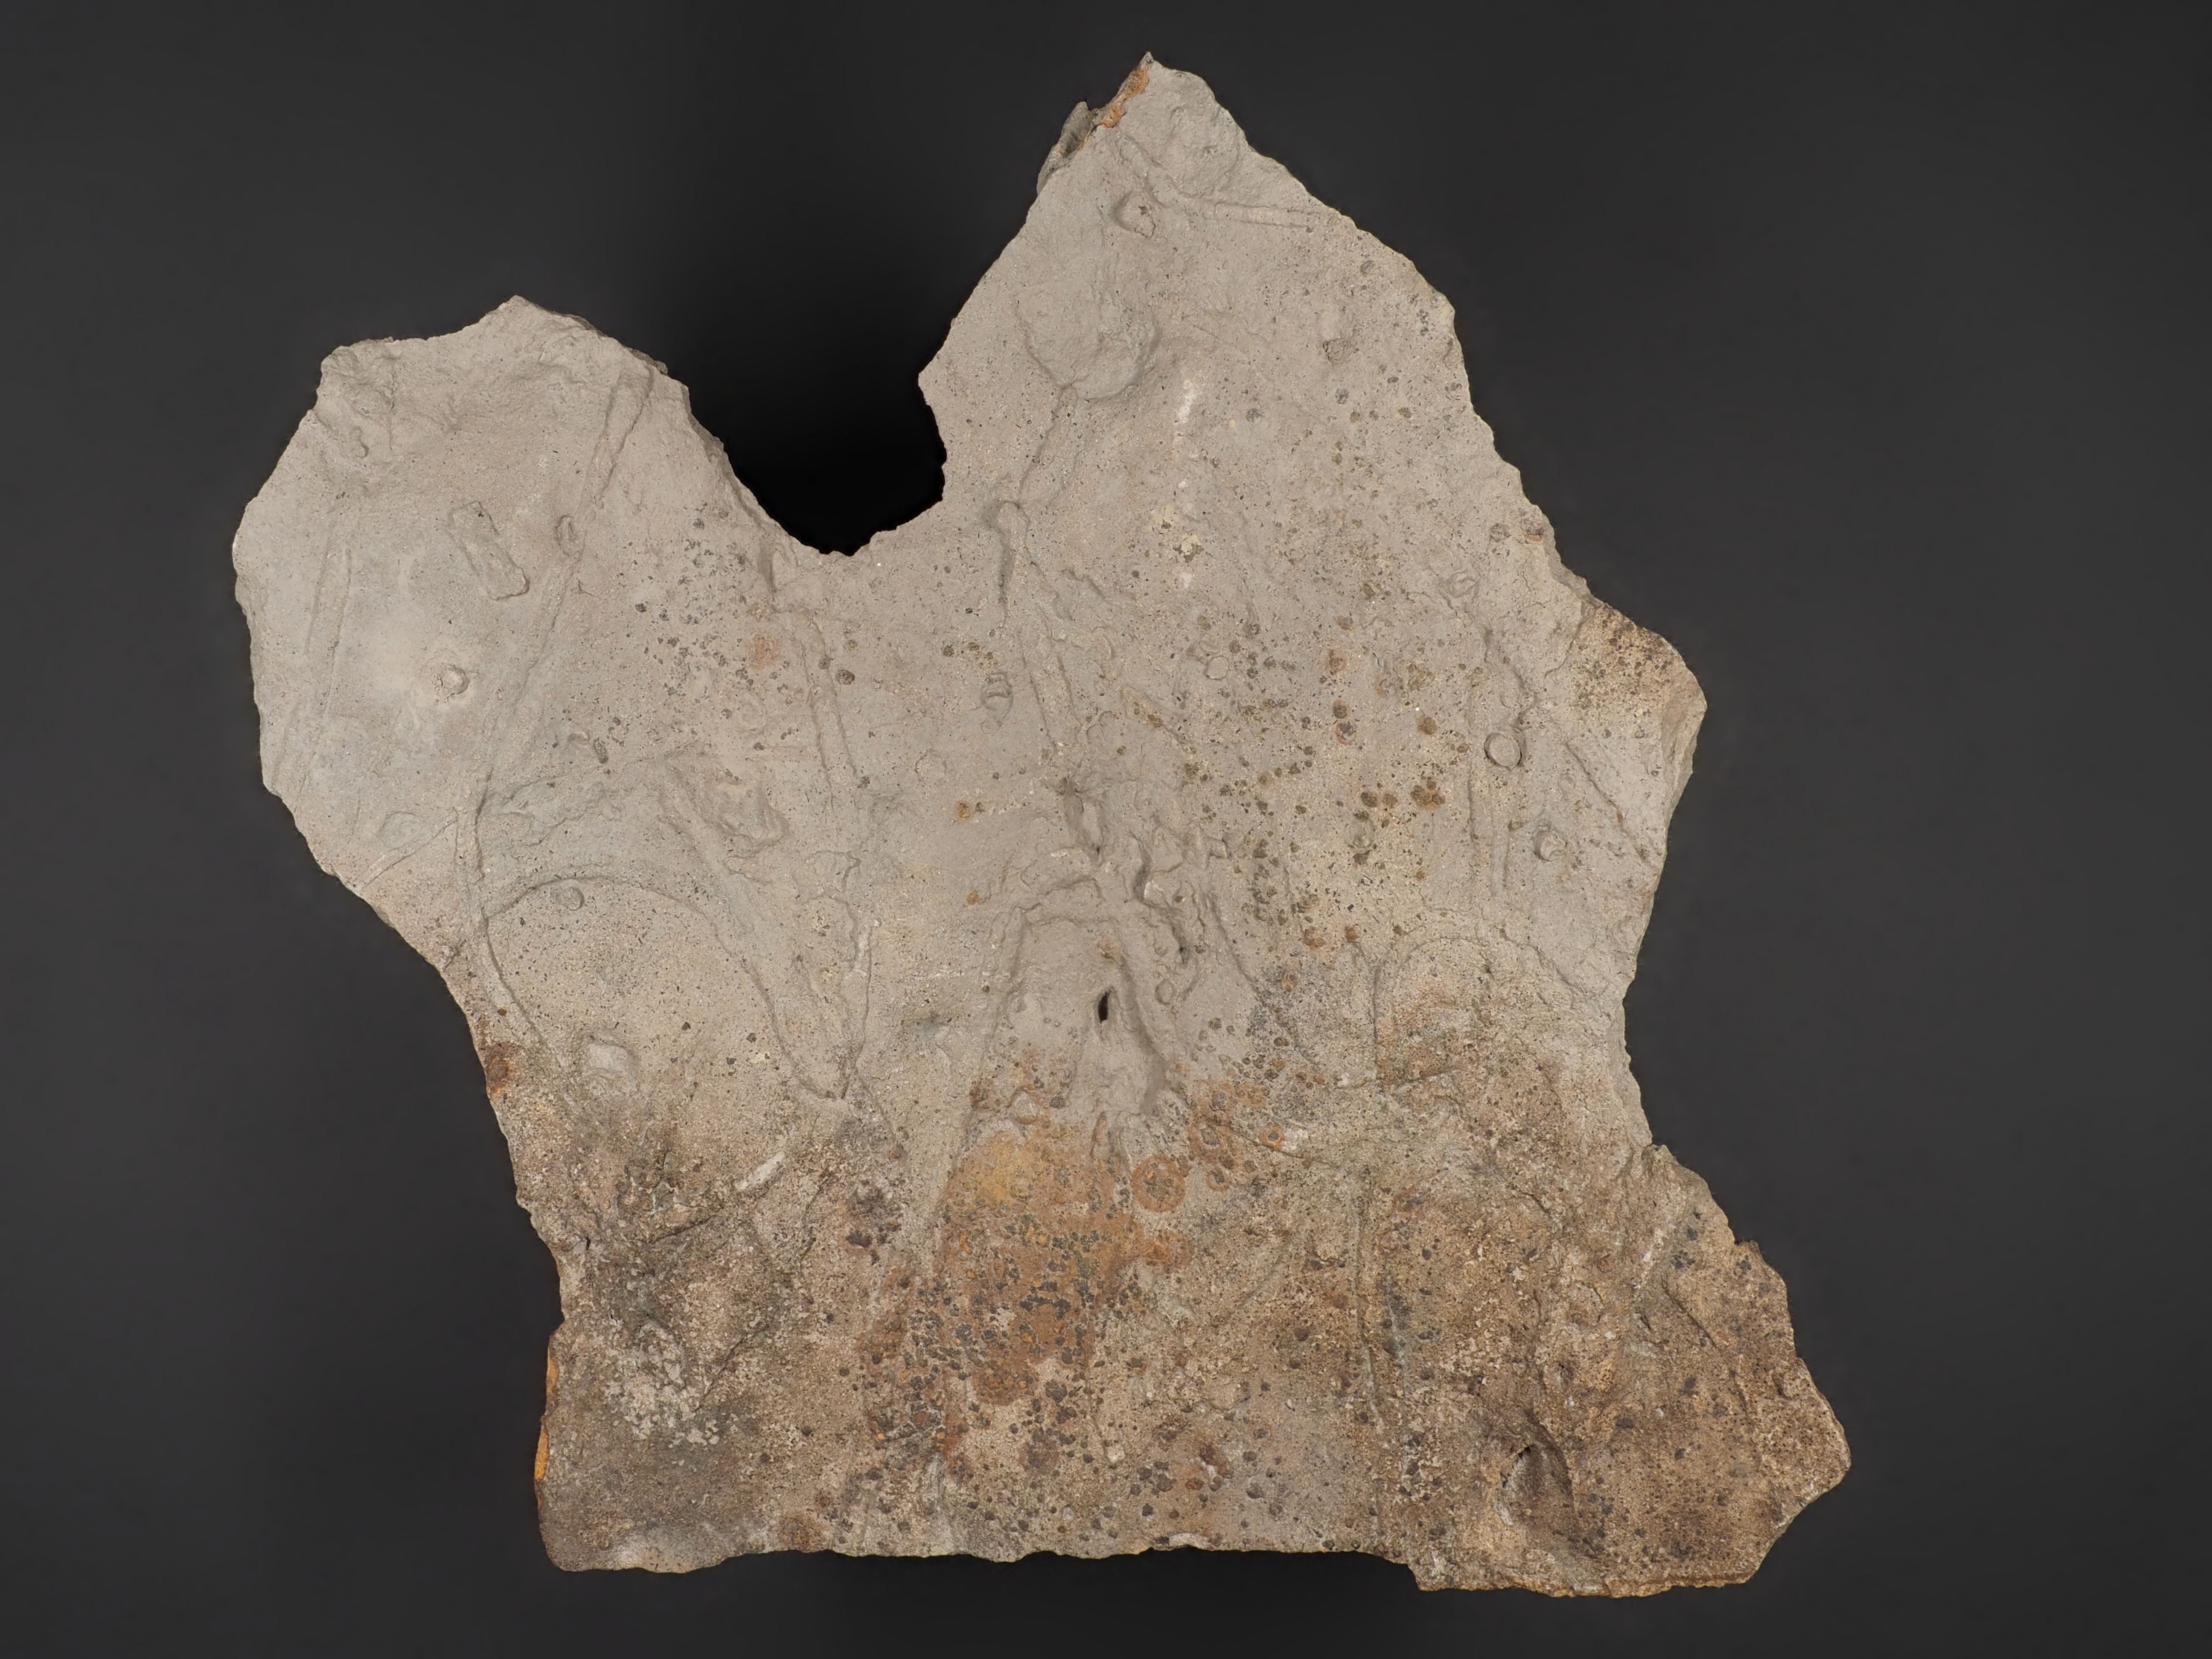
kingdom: Animalia
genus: Gyrochorte
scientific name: Gyrochorte
